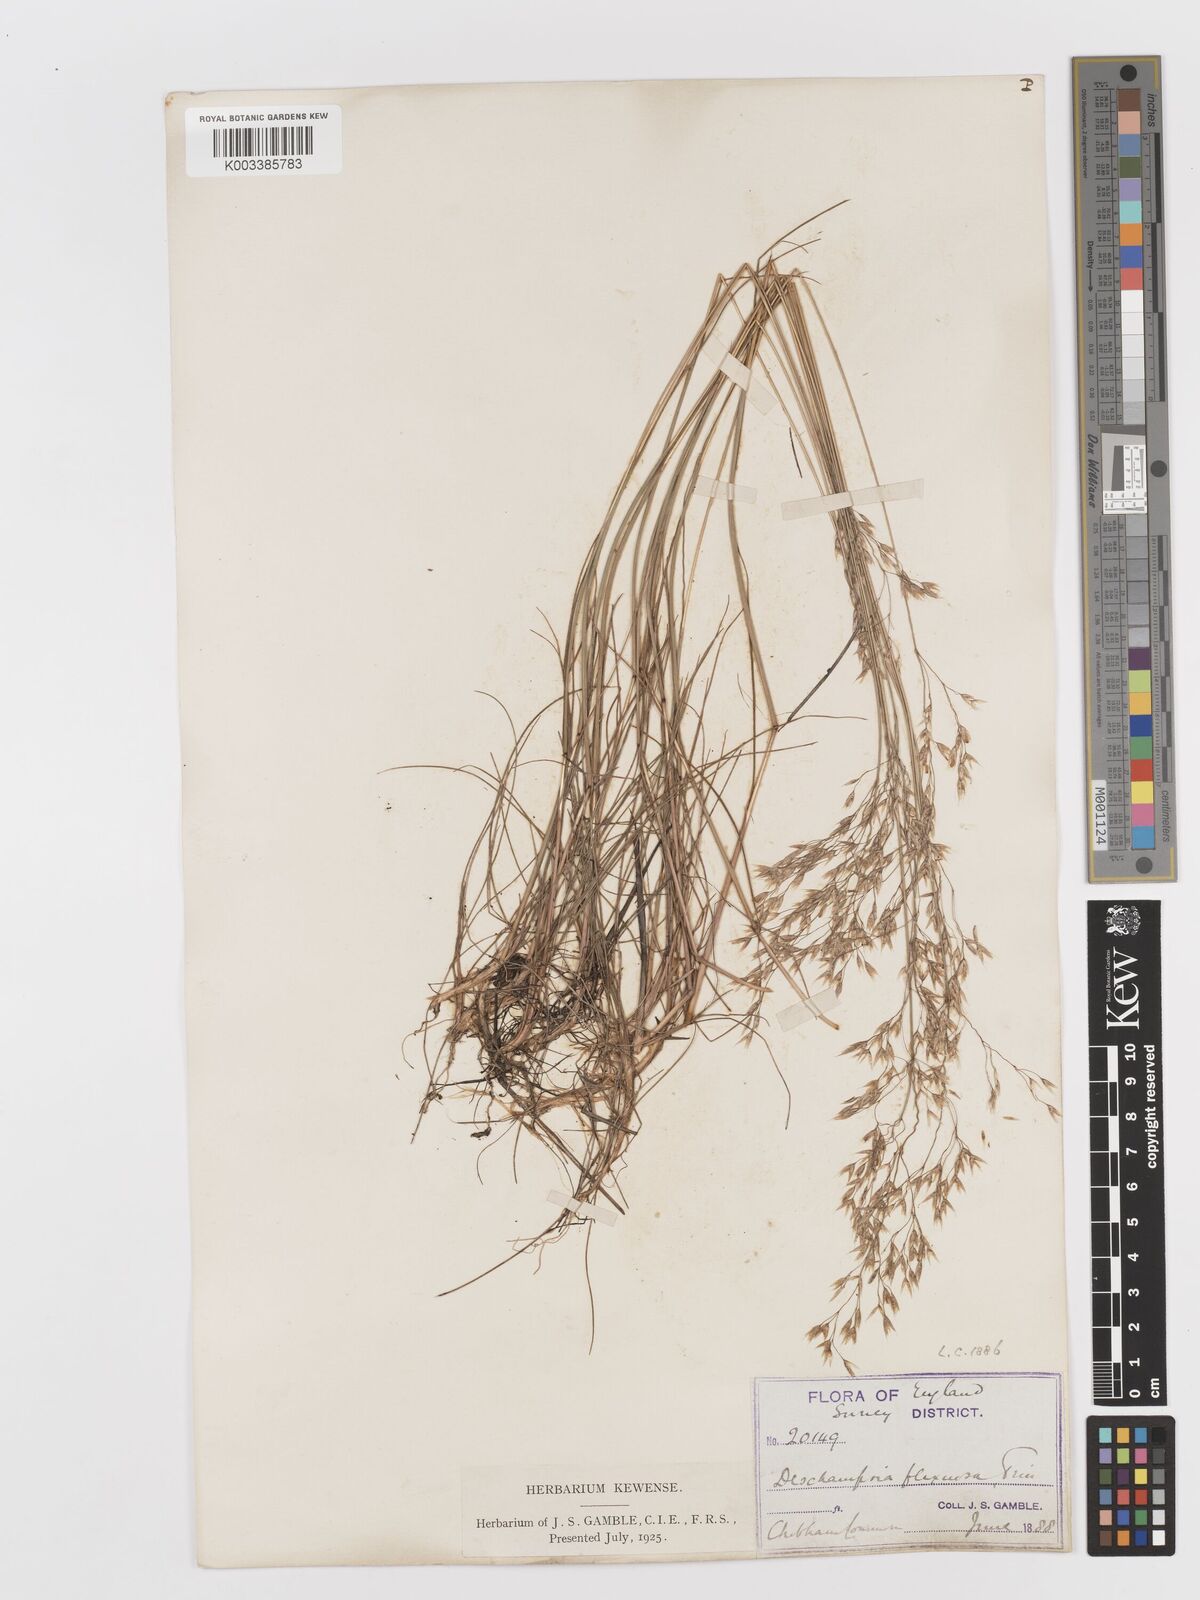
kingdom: Plantae
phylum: Tracheophyta
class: Liliopsida
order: Poales
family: Poaceae
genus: Avenella
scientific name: Avenella flexuosa
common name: Wavy hairgrass
